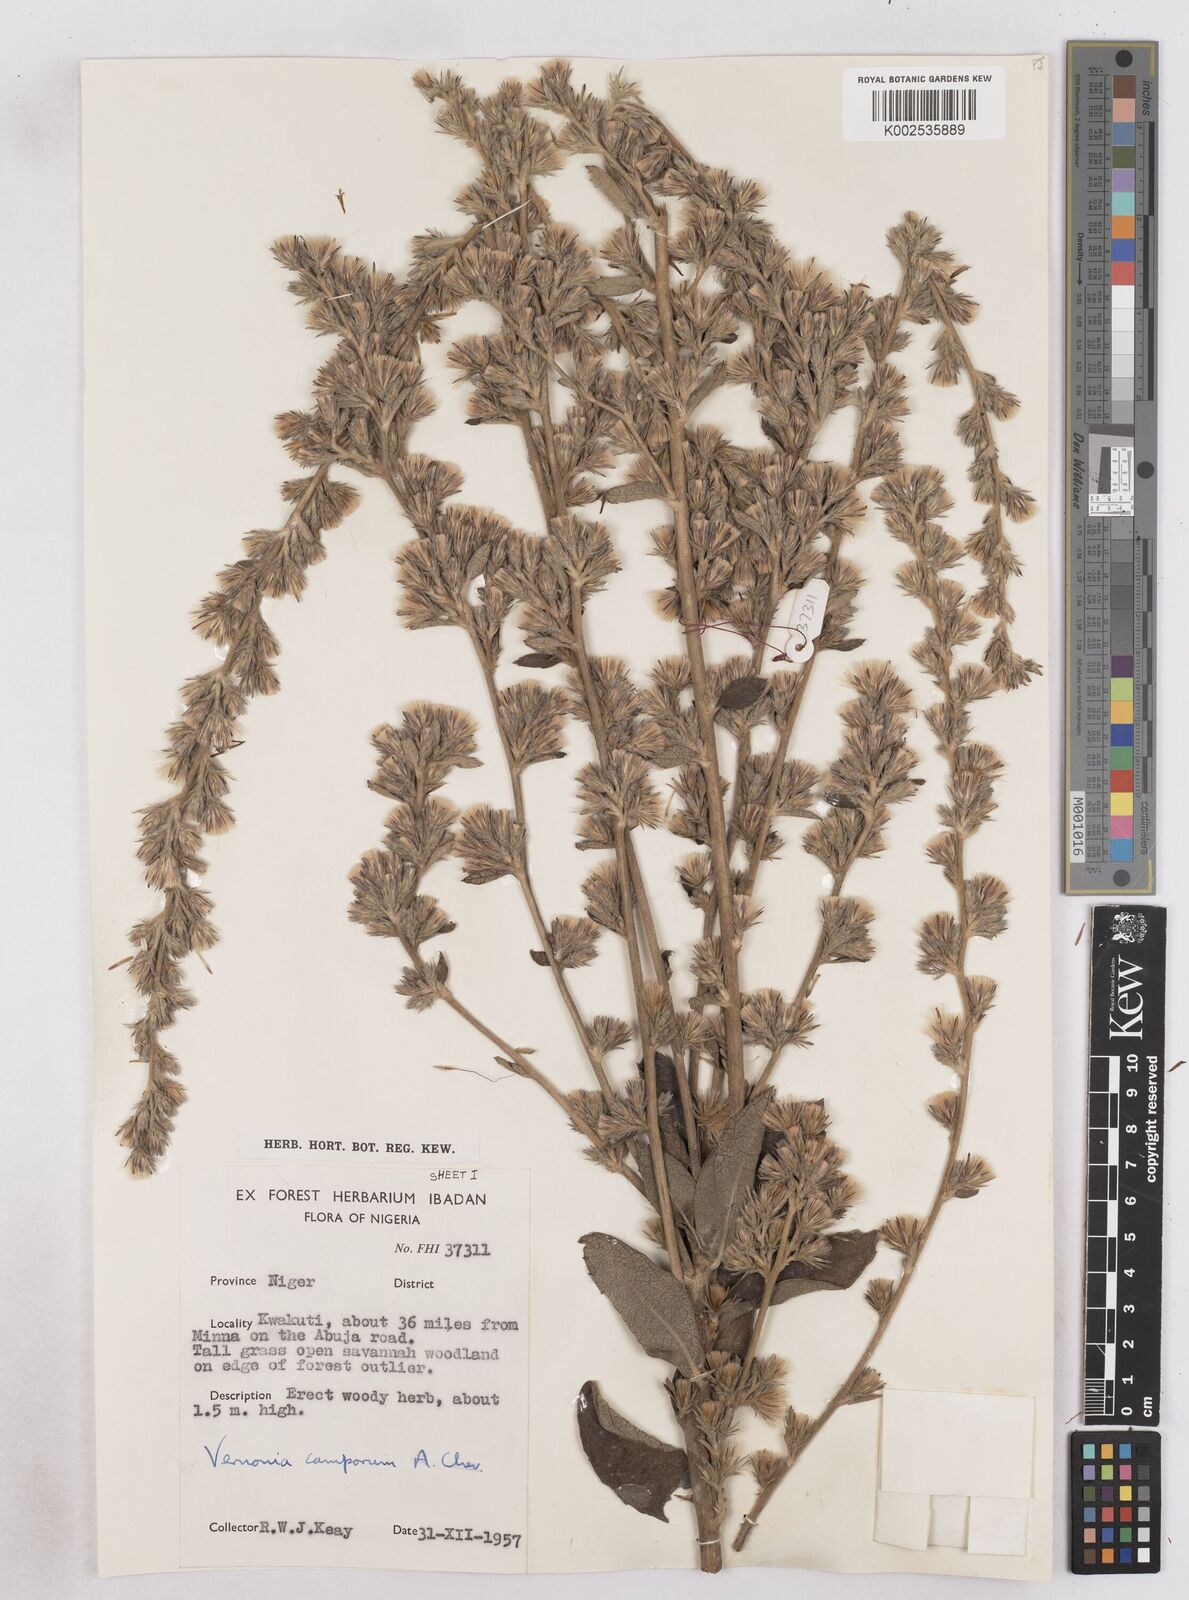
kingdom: Plantae
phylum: Tracheophyta
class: Magnoliopsida
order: Asterales
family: Asteraceae
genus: Vernoniastrum
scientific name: Vernoniastrum camporum
